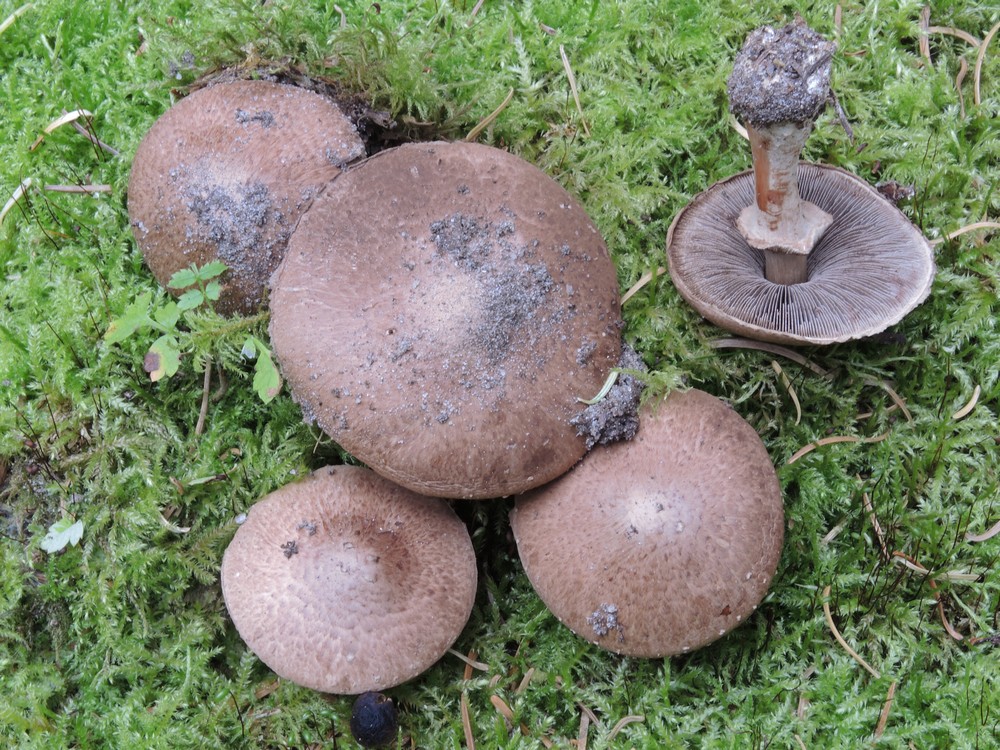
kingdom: Fungi
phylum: Basidiomycota
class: Agaricomycetes
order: Agaricales
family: Agaricaceae
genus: Agaricus
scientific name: Agaricus sylvaticus
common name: lille blod-champignon
